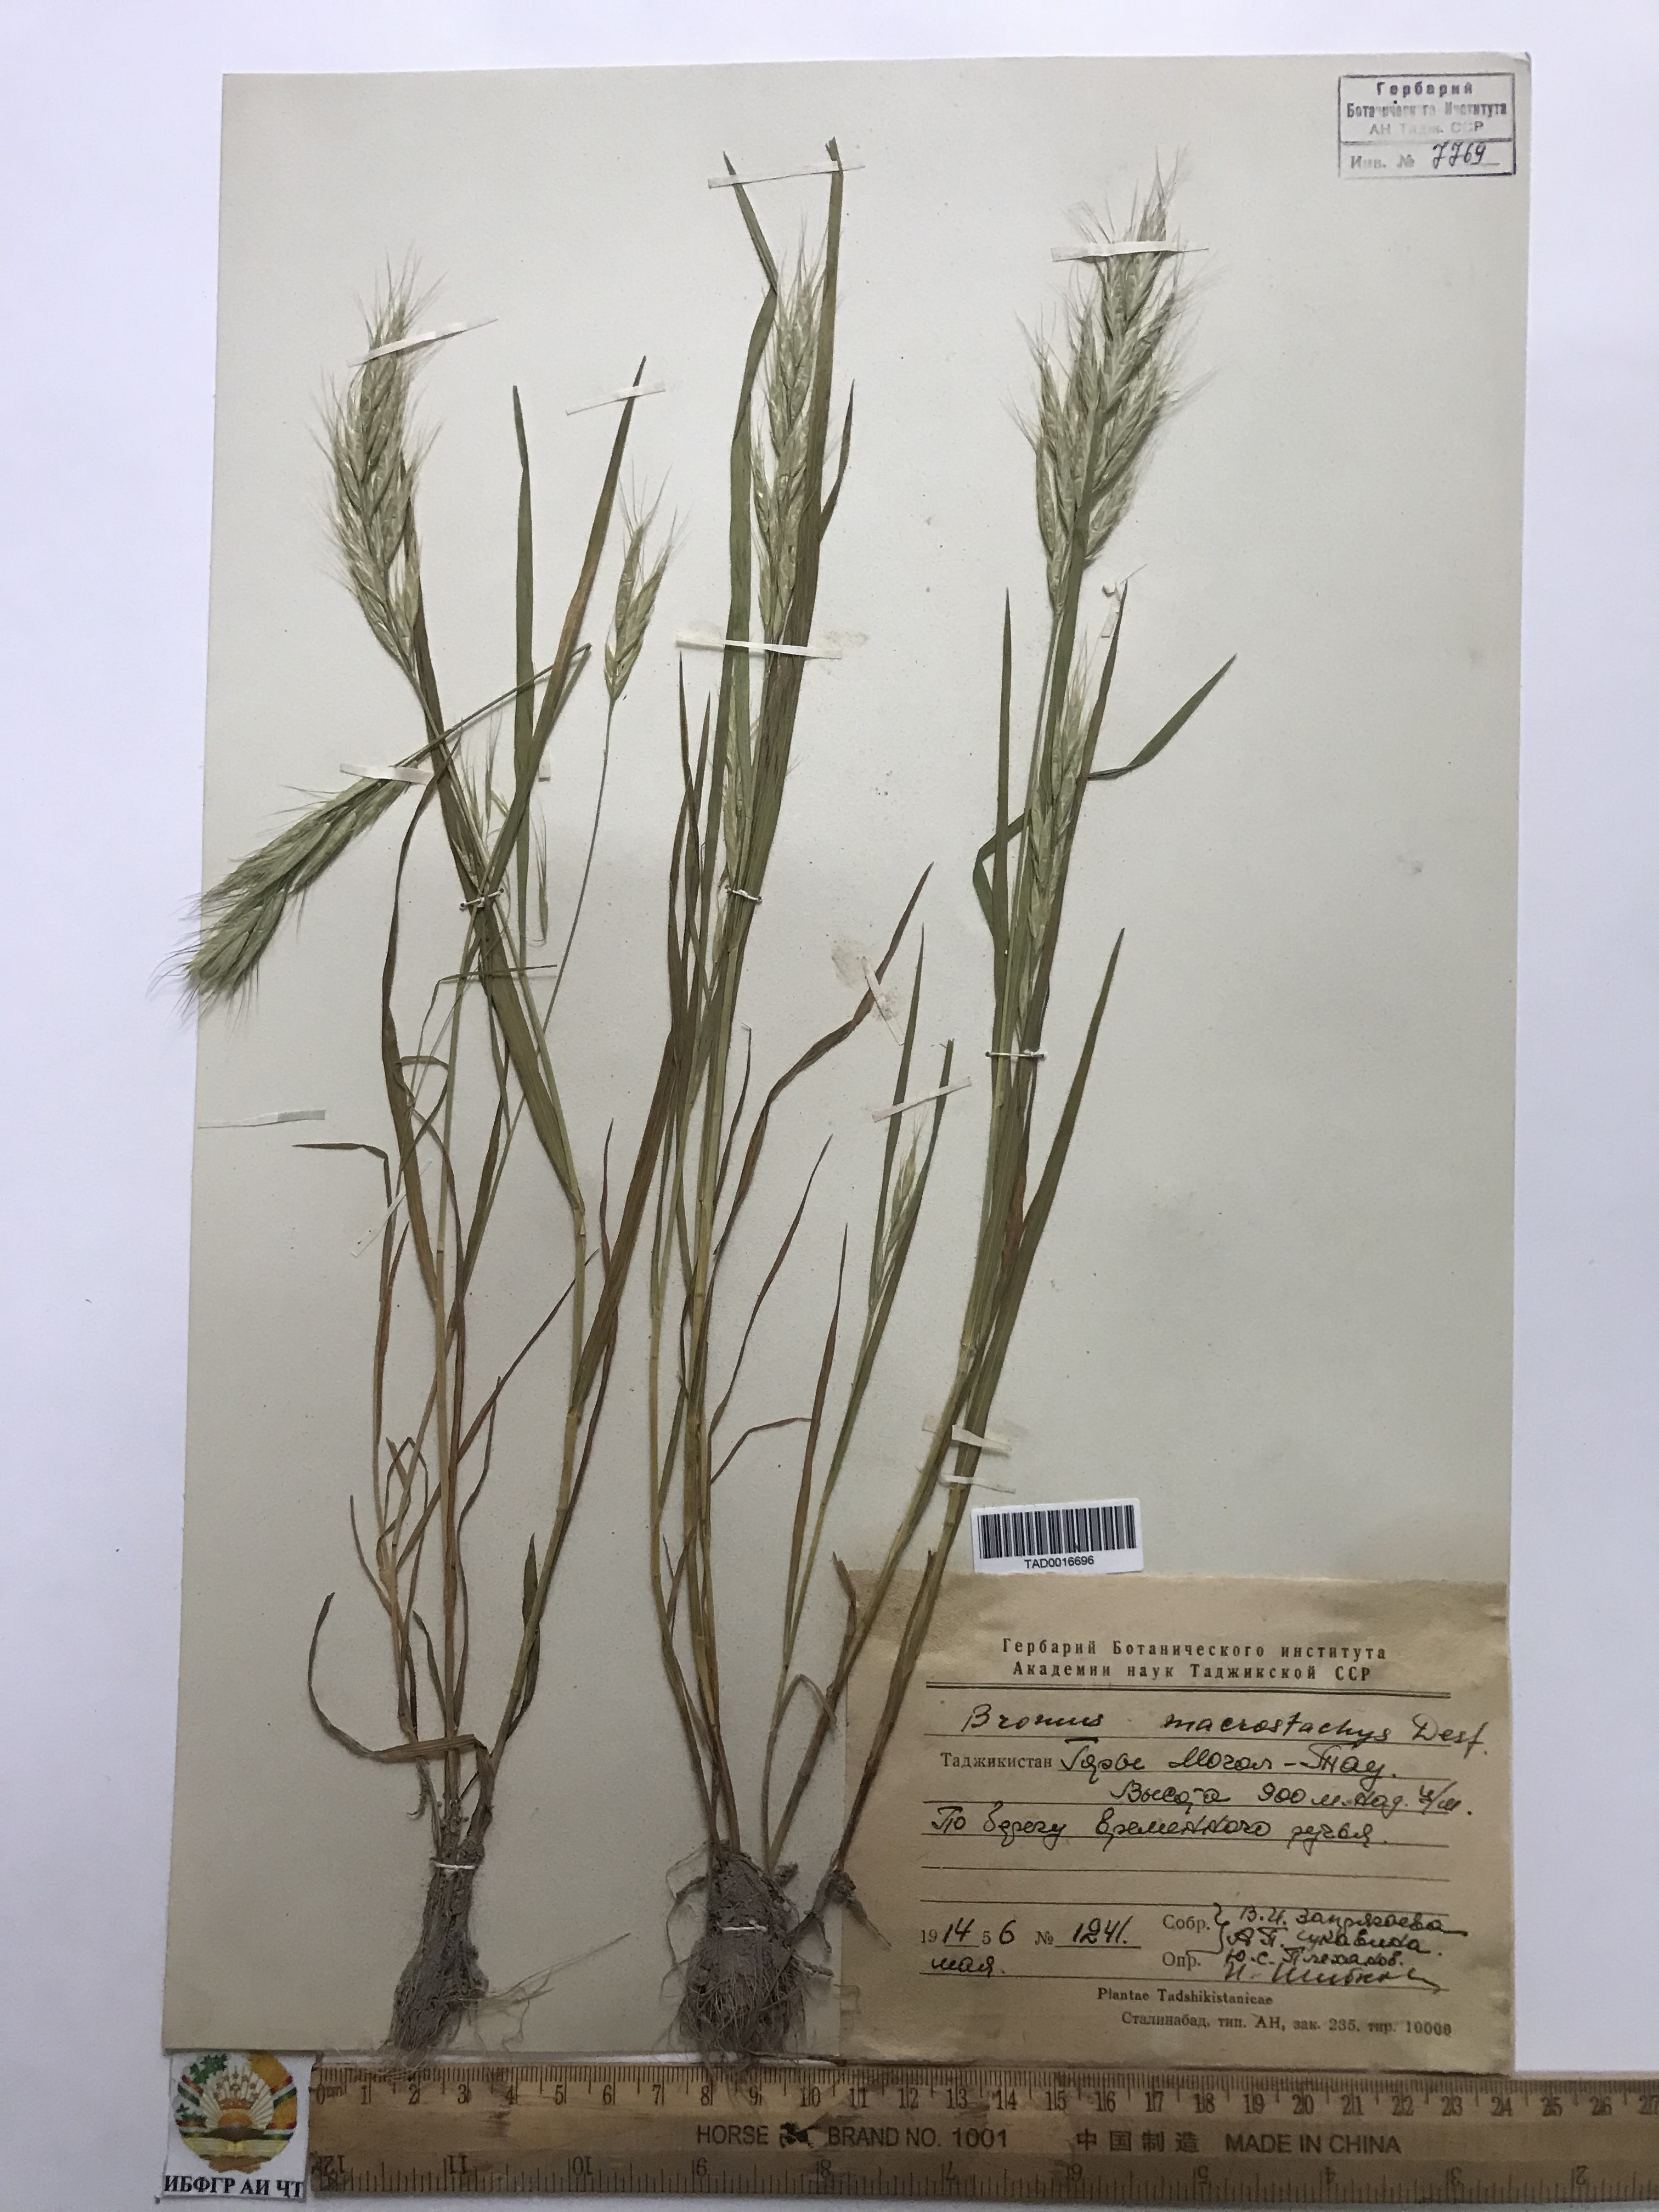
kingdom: Plantae
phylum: Tracheophyta
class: Liliopsida
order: Poales
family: Poaceae
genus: Bromus
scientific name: Bromus lanceolatus
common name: Mediterranean brome
